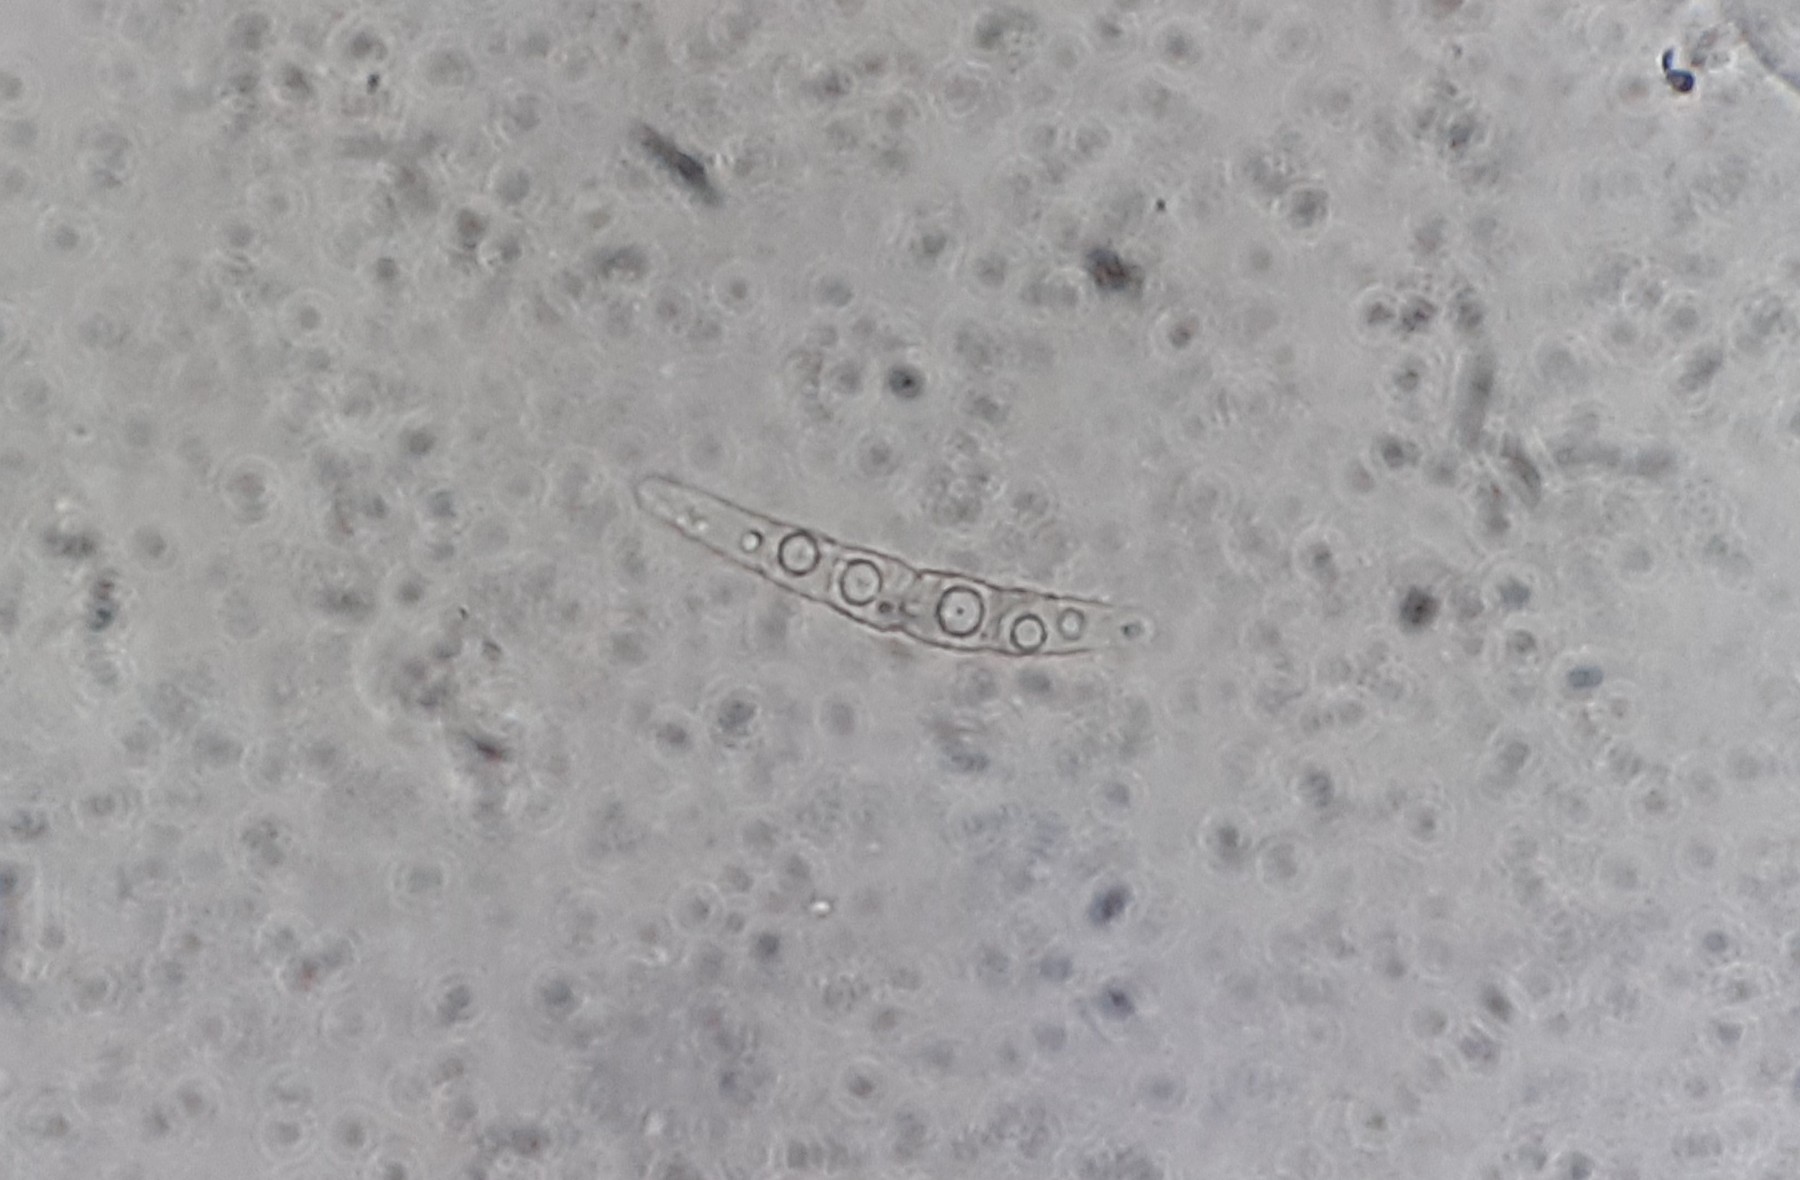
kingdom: Fungi
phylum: Ascomycota
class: Dothideomycetes
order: Pleosporales
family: Phaeosphaeriaceae
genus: Phaeosphaeria
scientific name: Phaeosphaeria sowerbyi
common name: kål-kulkegle
